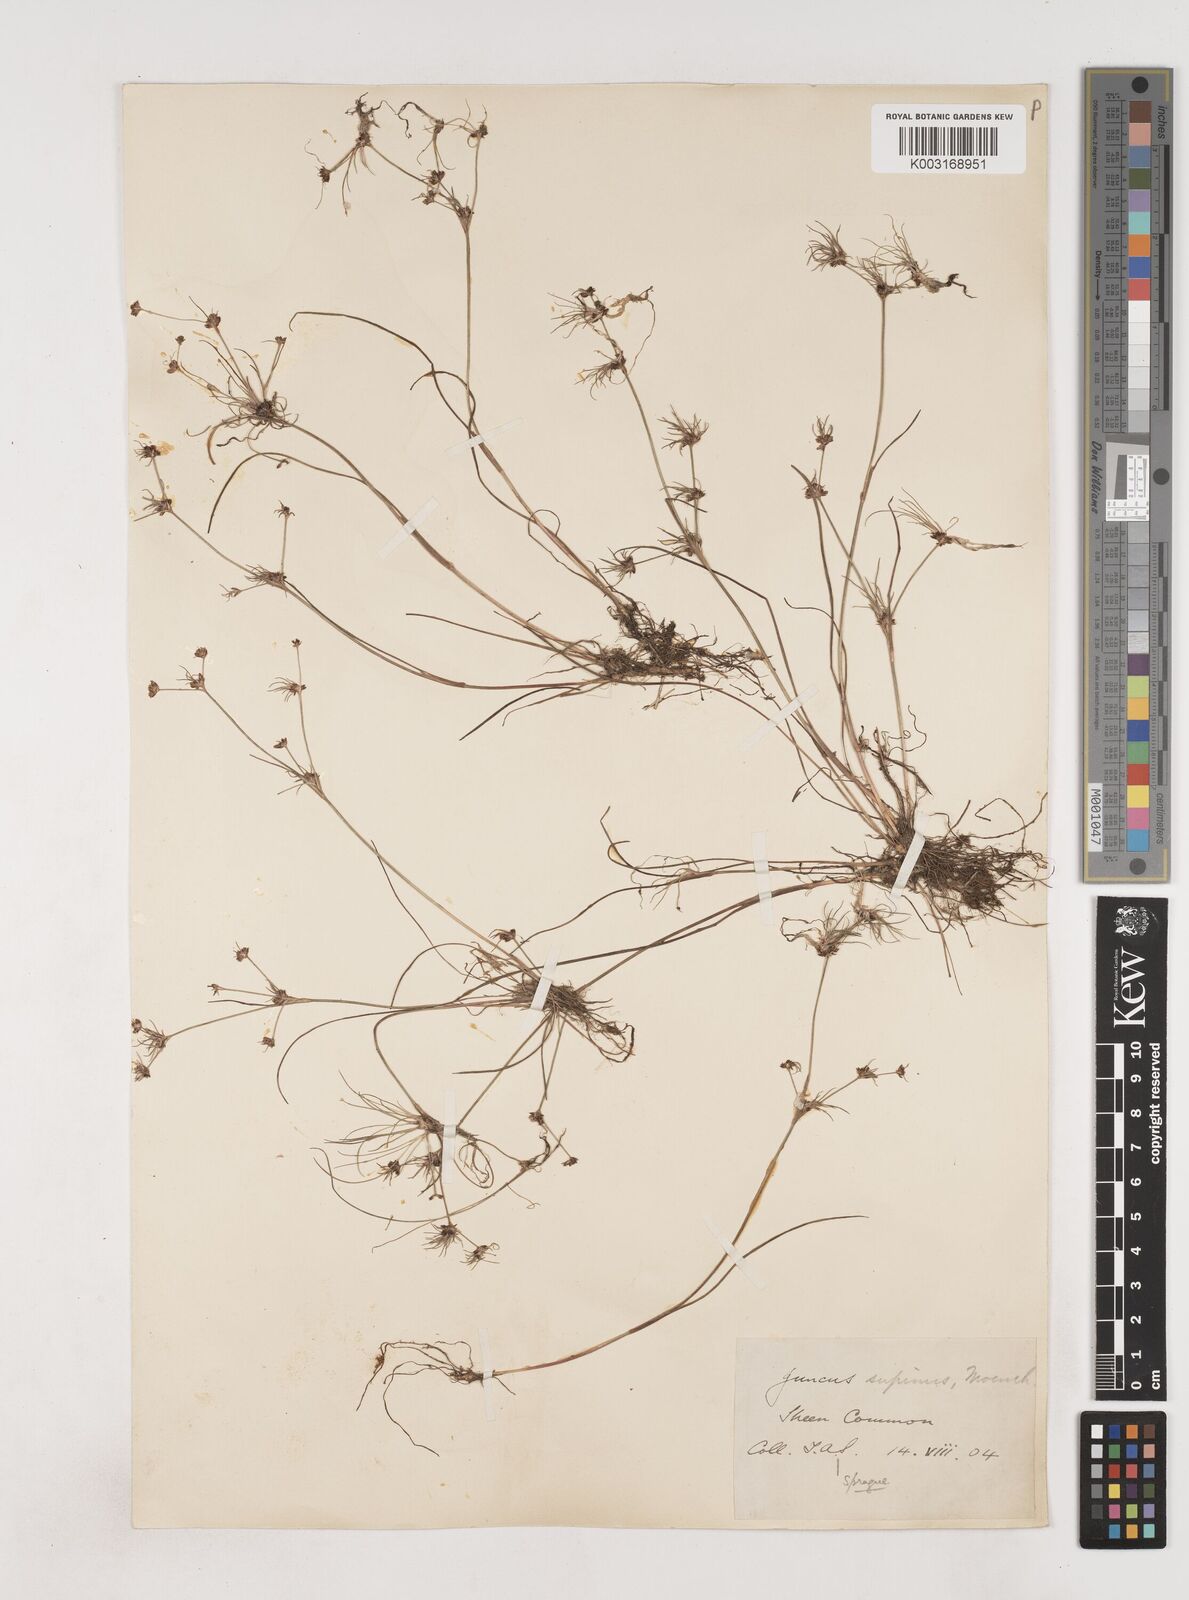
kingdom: Plantae
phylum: Tracheophyta
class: Liliopsida
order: Poales
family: Juncaceae
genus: Juncus
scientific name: Juncus bulbosus
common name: Bulbous rush
